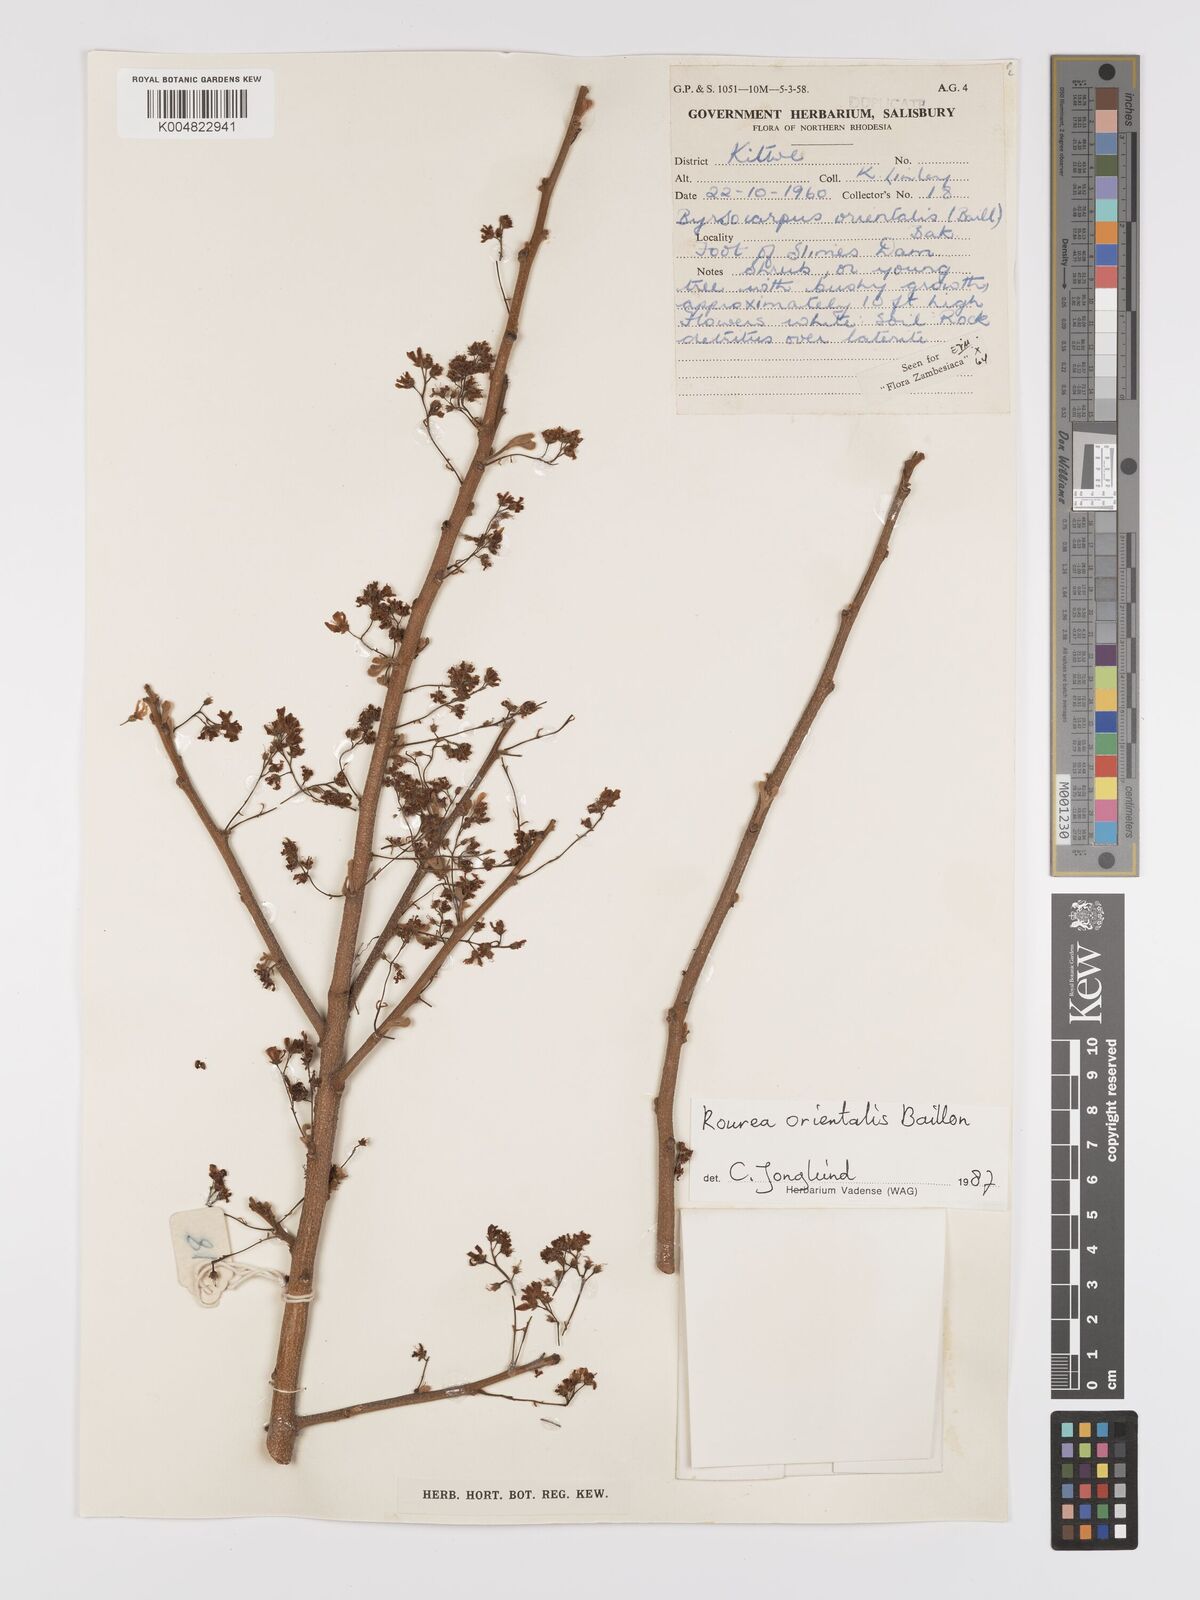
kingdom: Plantae
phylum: Tracheophyta
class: Magnoliopsida
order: Oxalidales
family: Connaraceae
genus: Rourea
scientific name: Rourea orientalis
